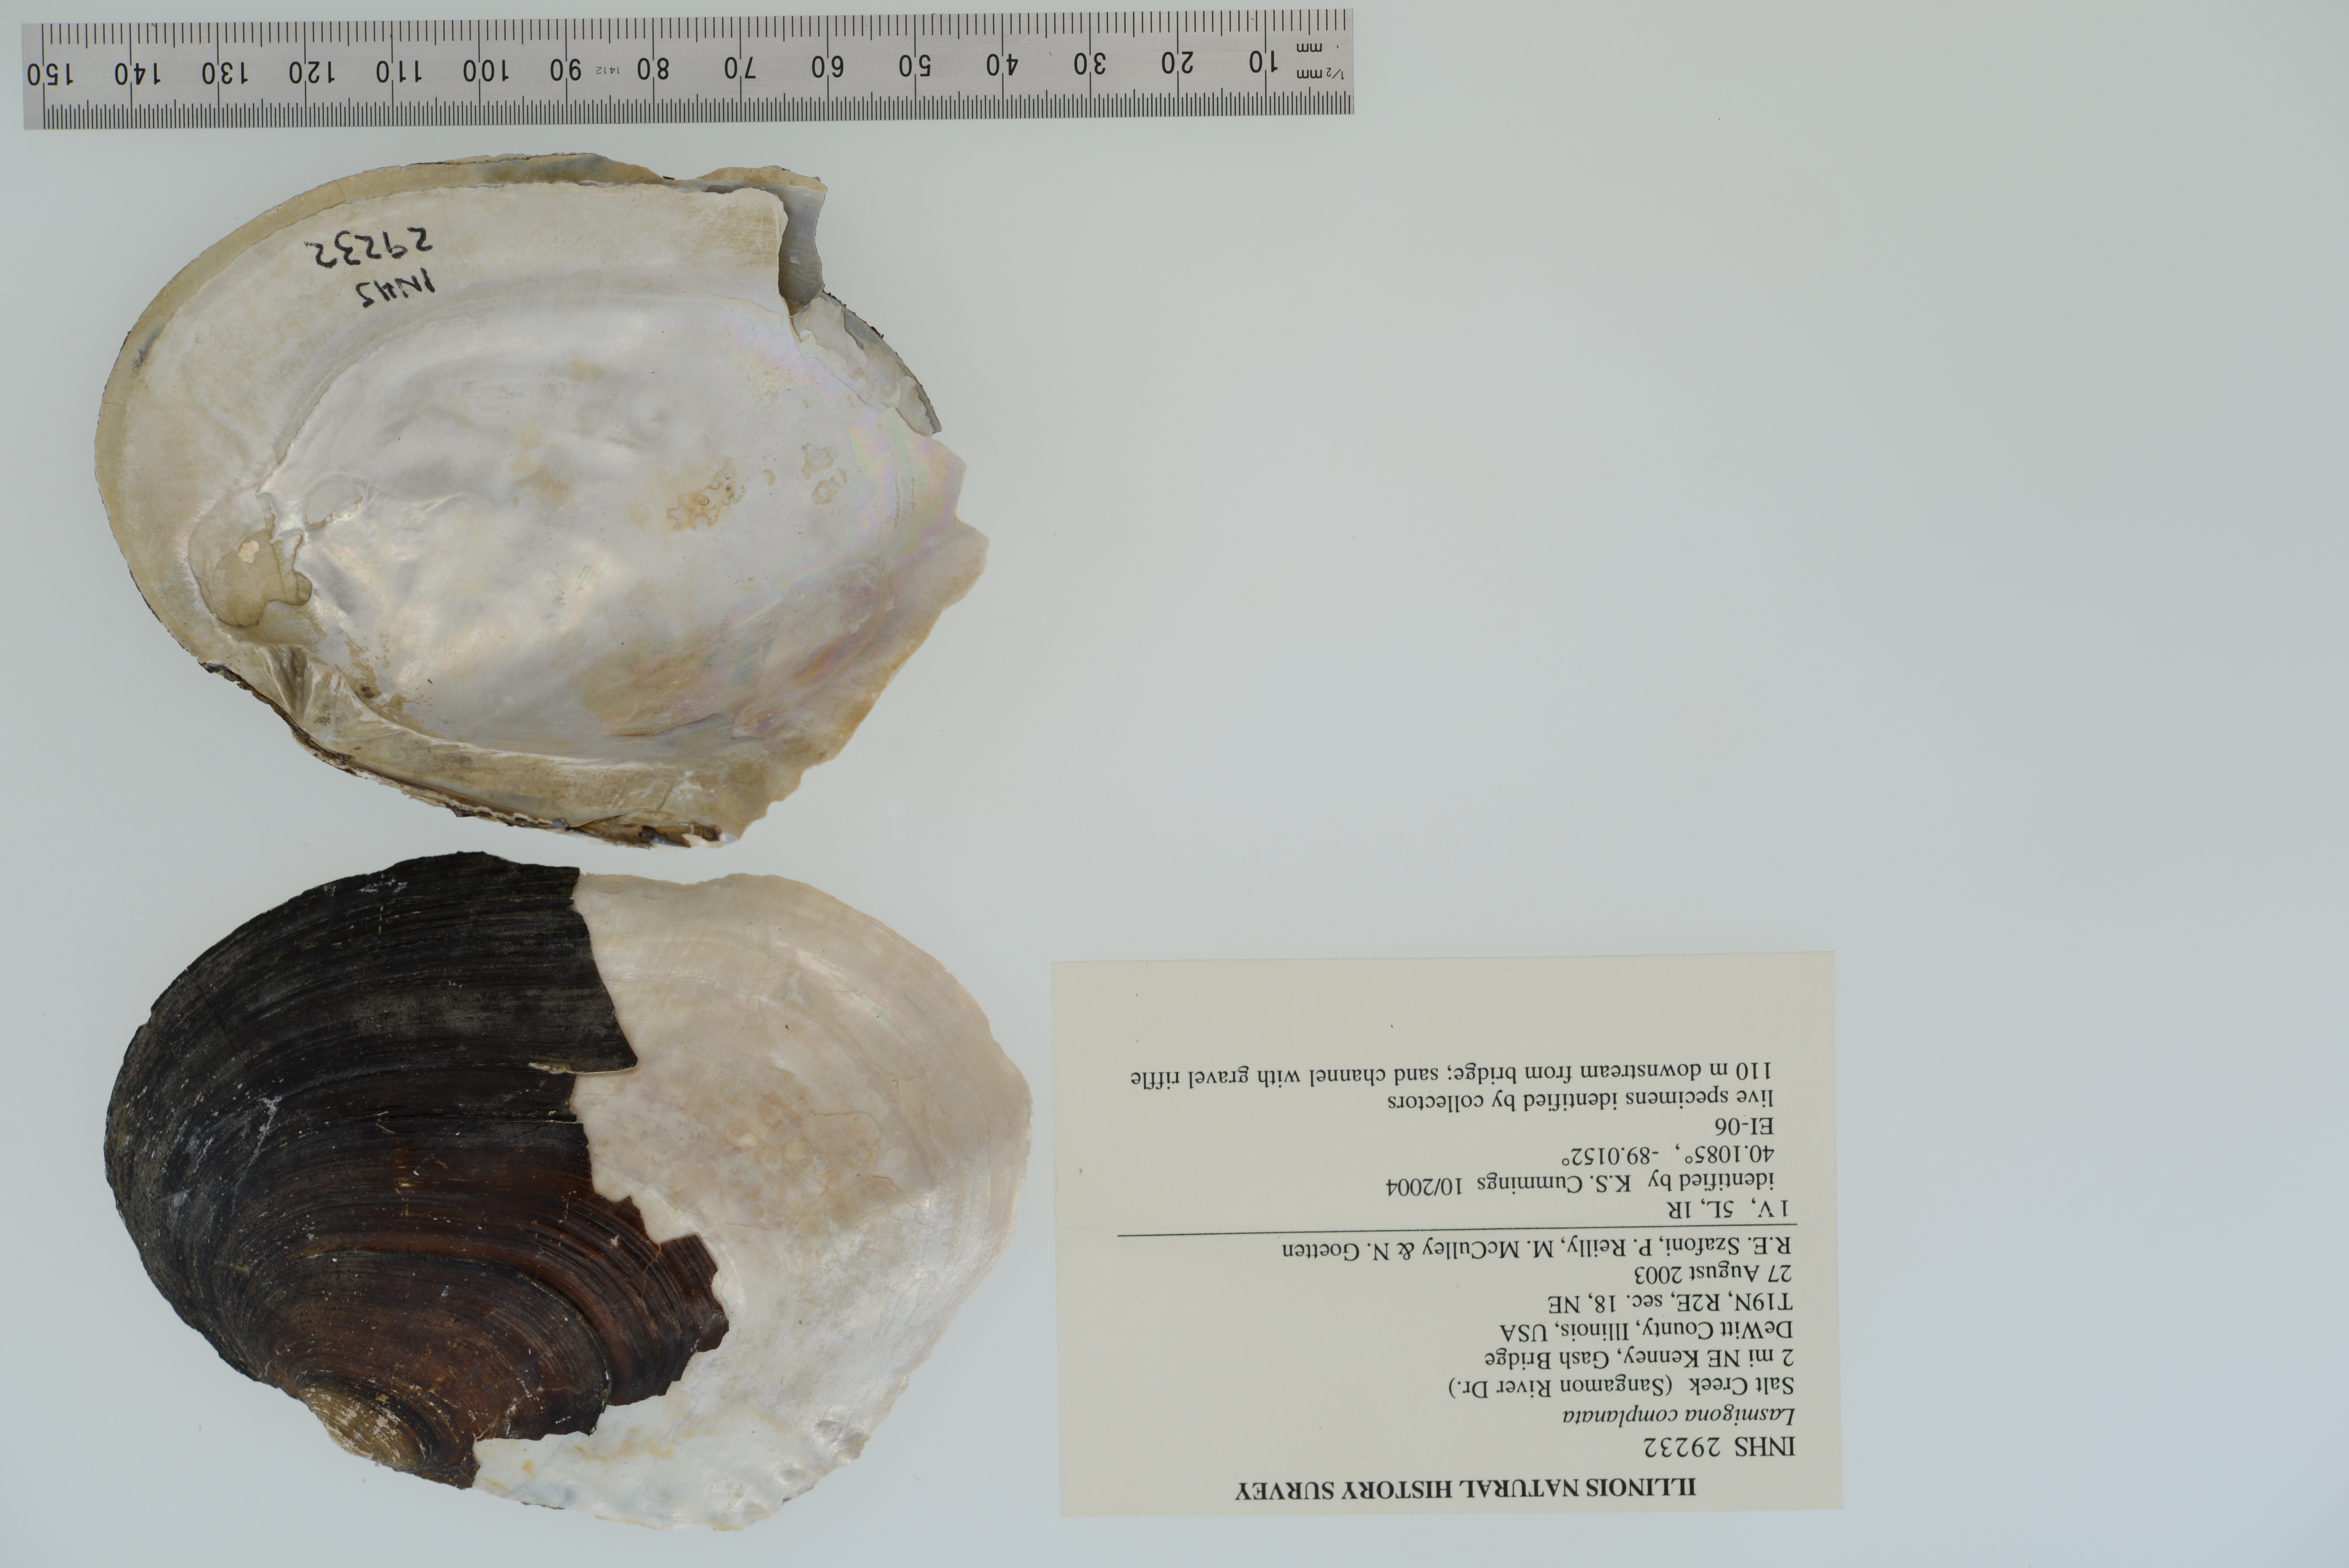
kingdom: Animalia
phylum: Mollusca
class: Bivalvia
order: Unionida
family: Unionidae
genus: Lasmigona
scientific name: Lasmigona complanata
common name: White heelsplitter
